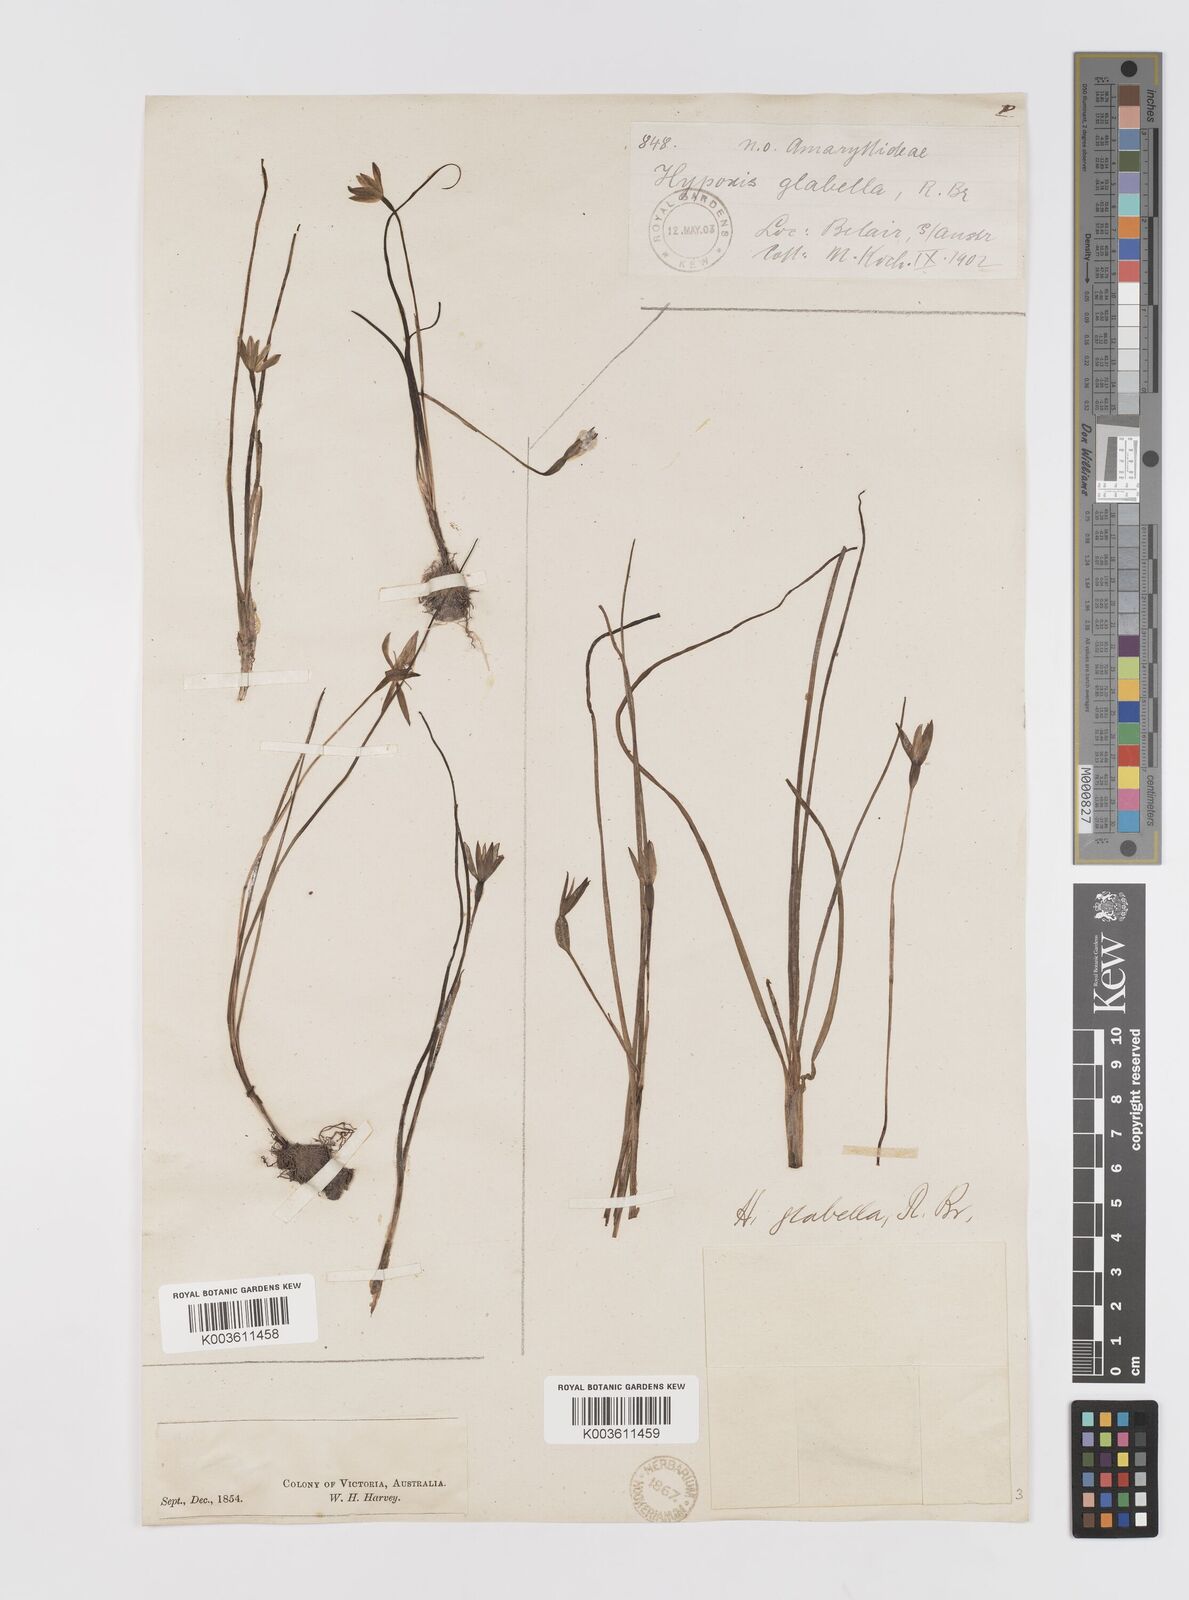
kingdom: Plantae
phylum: Tracheophyta
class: Liliopsida
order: Asparagales
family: Hypoxidaceae
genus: Pauridia
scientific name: Pauridia glabella
